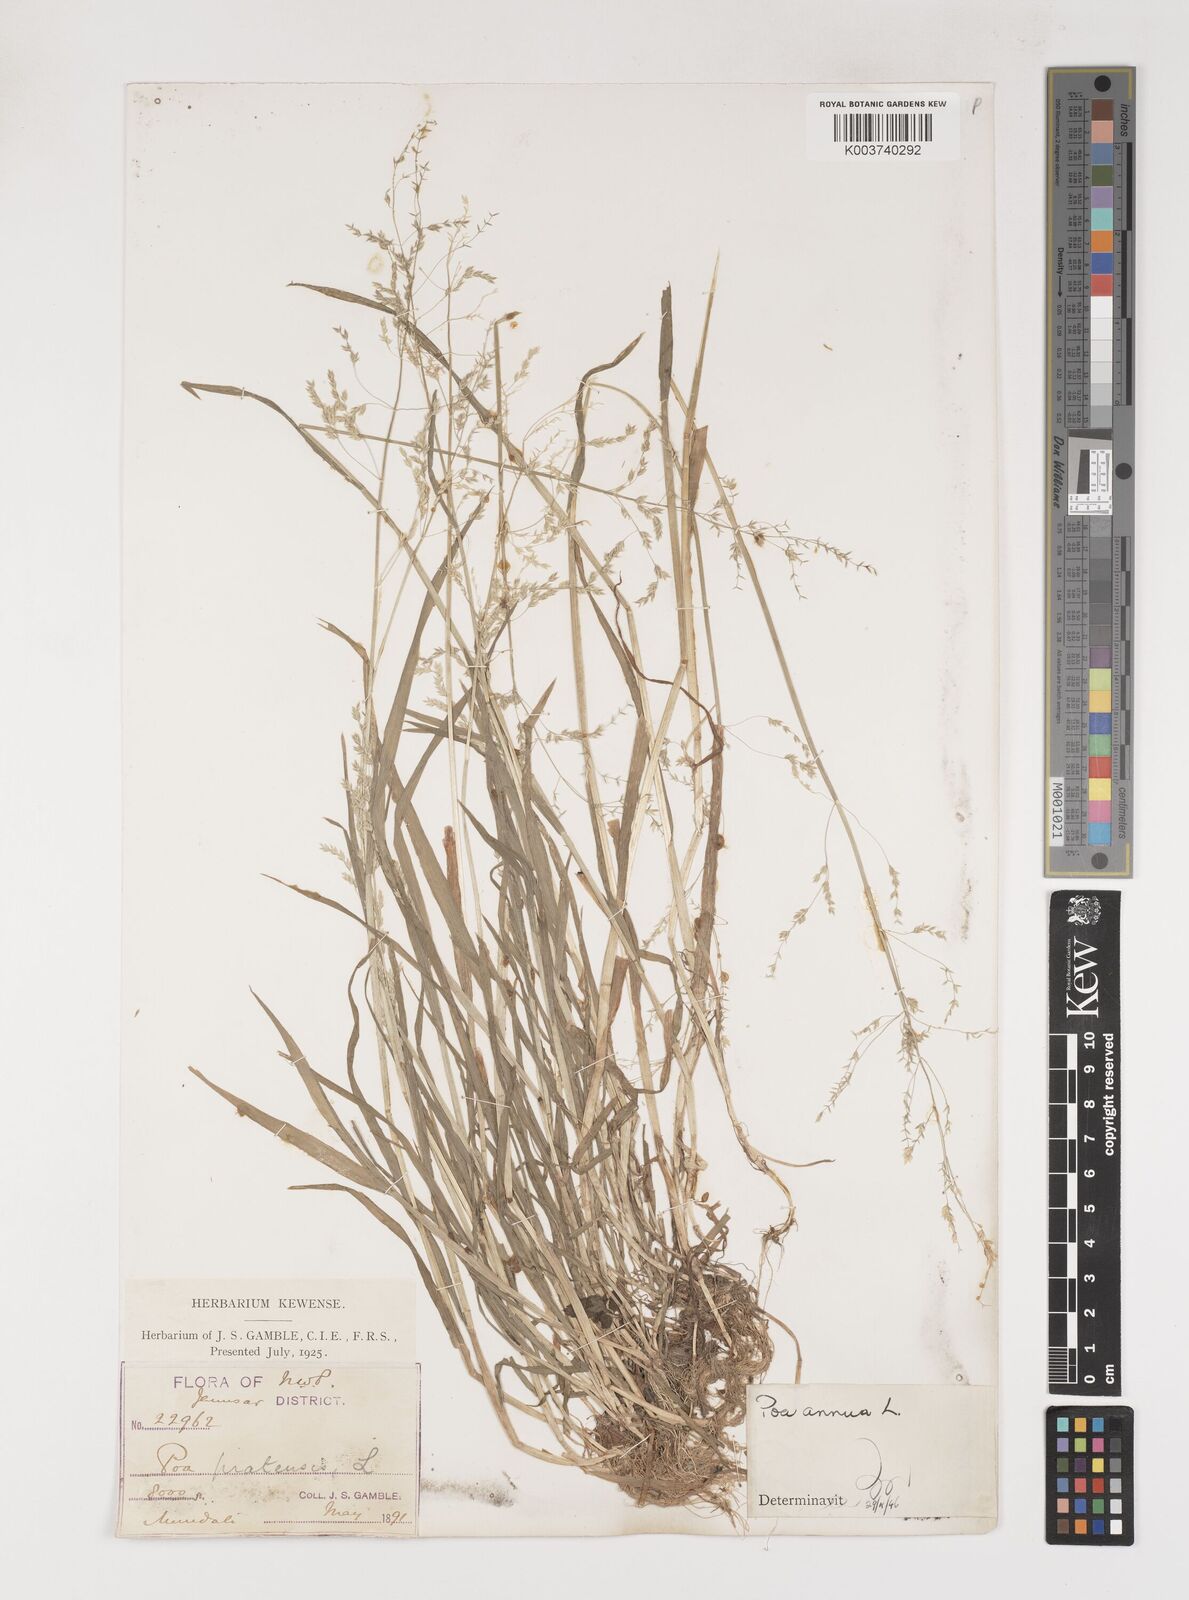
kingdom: Plantae
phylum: Tracheophyta
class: Liliopsida
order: Poales
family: Poaceae
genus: Poa
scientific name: Poa annua
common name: Annual bluegrass
